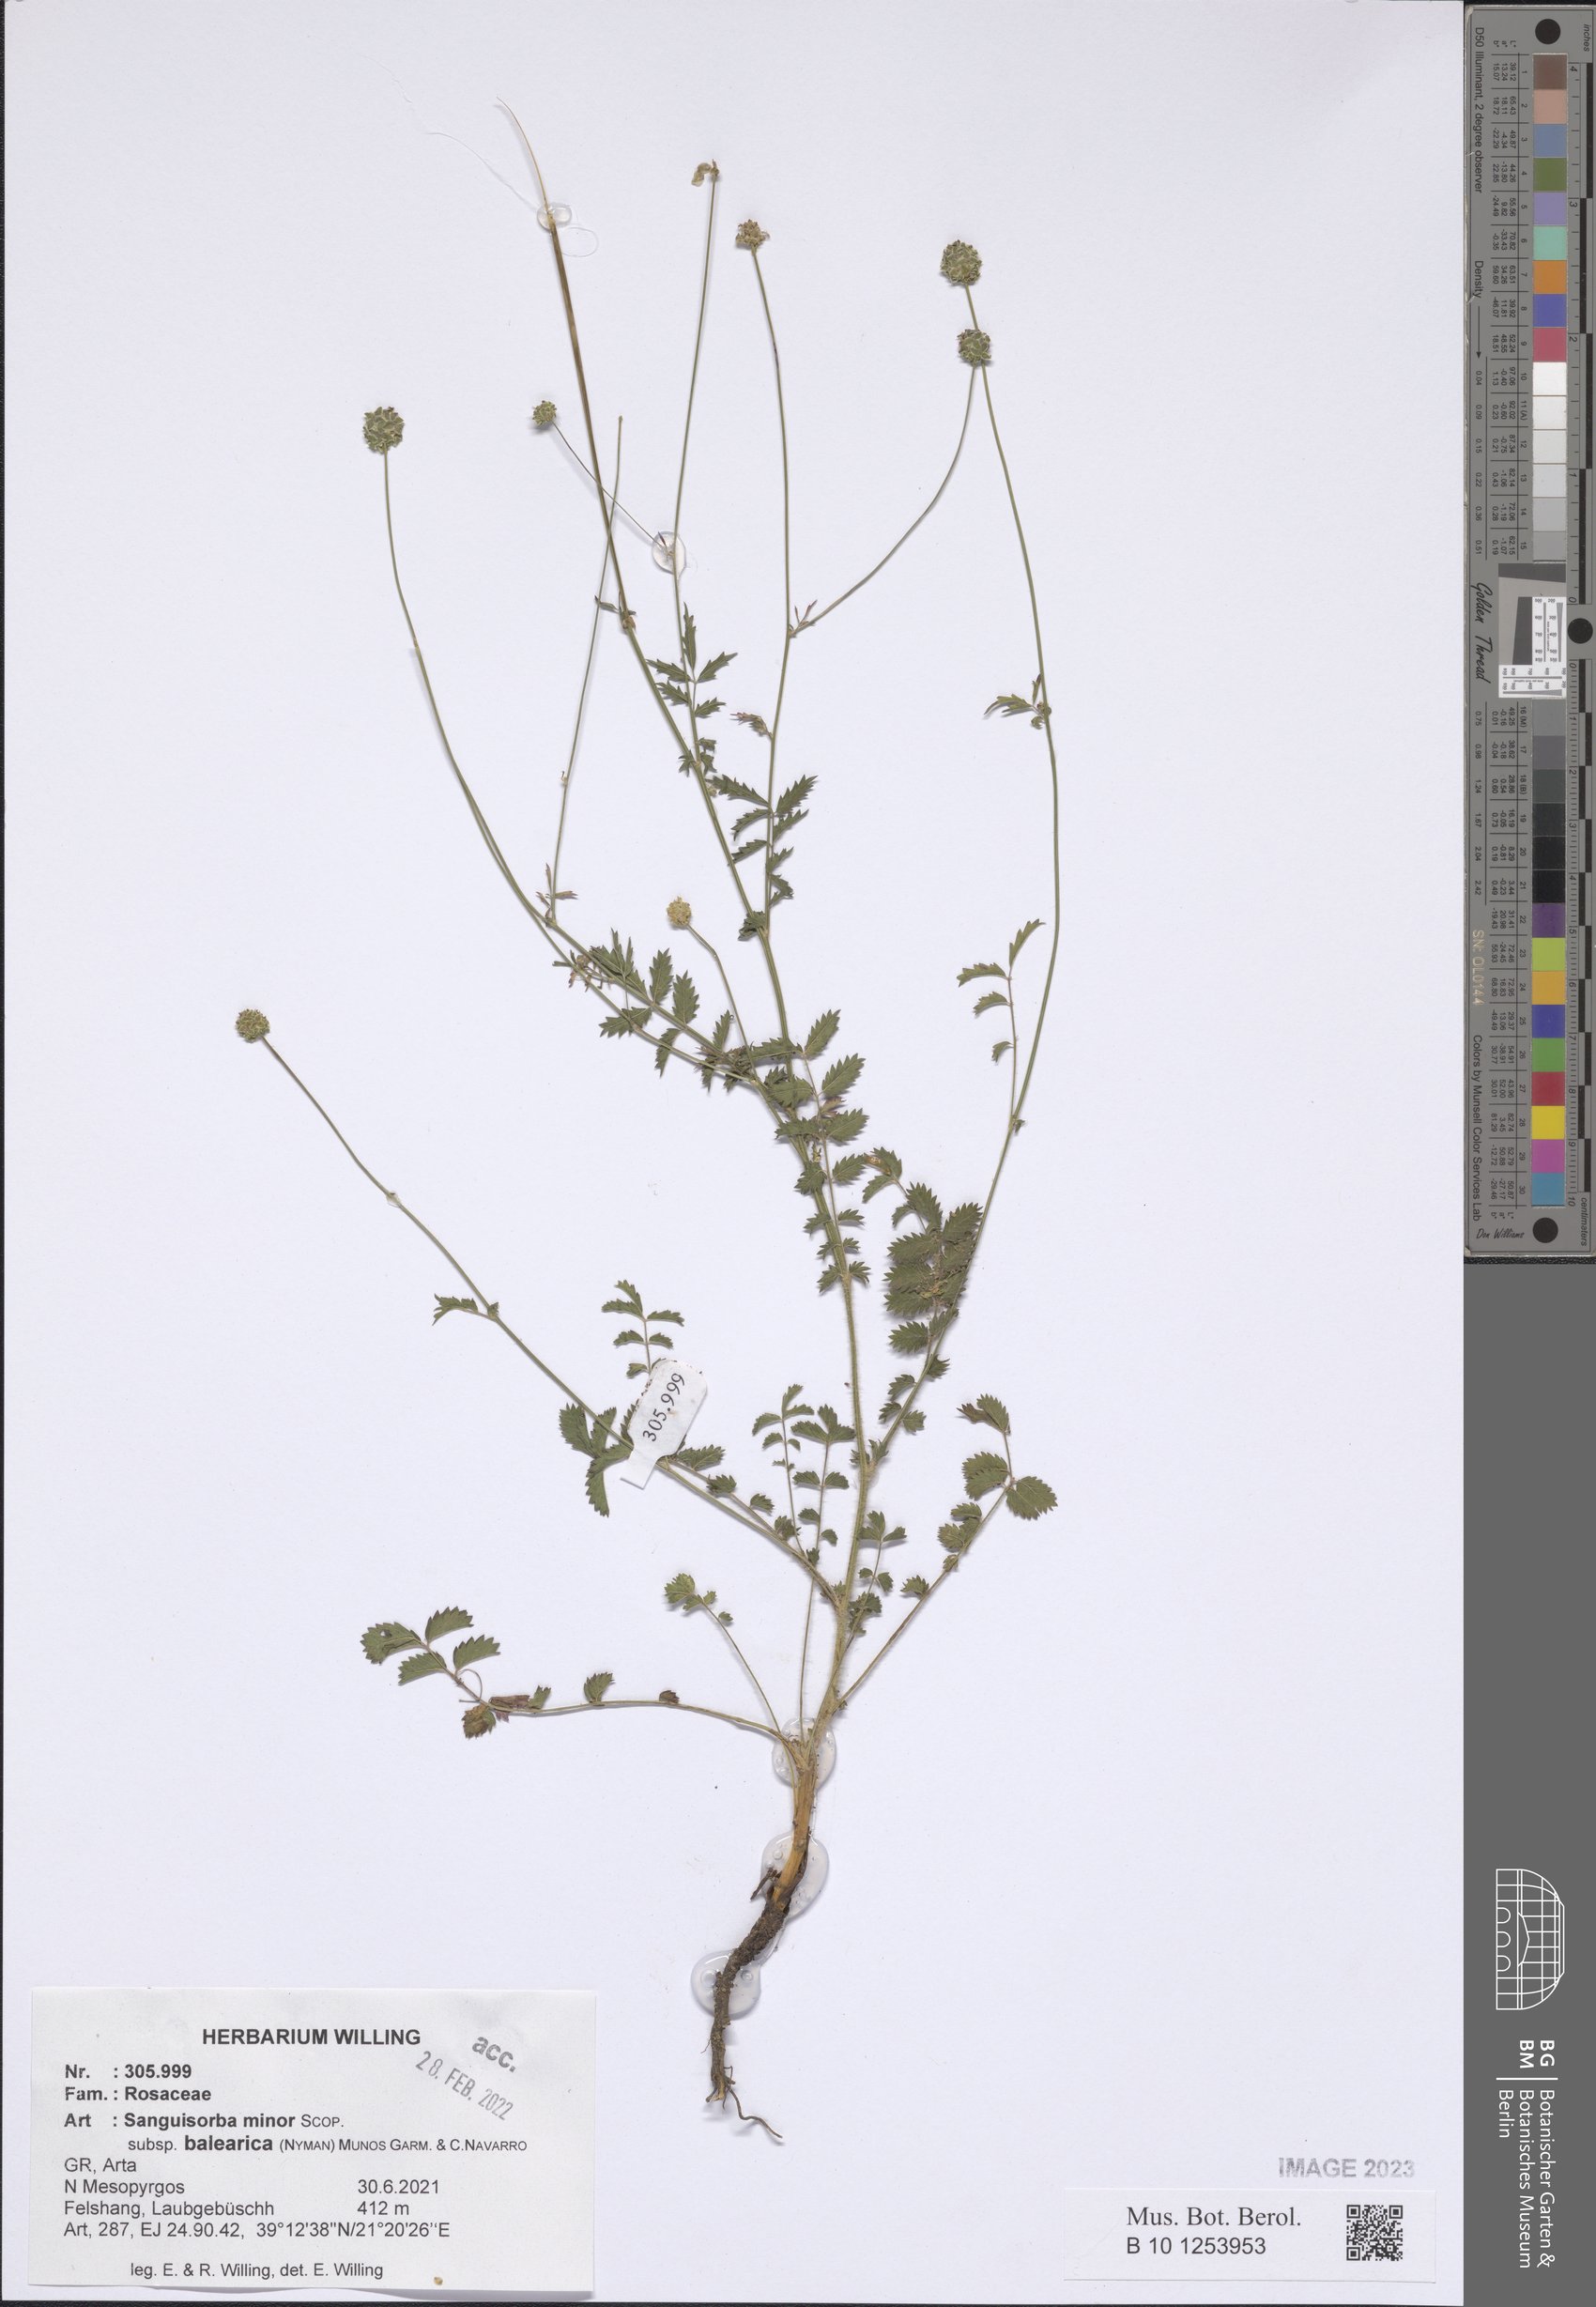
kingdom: Plantae
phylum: Tracheophyta
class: Magnoliopsida
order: Rosales
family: Rosaceae
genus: Poterium
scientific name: Poterium sanguisorba
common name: Salad burnet
